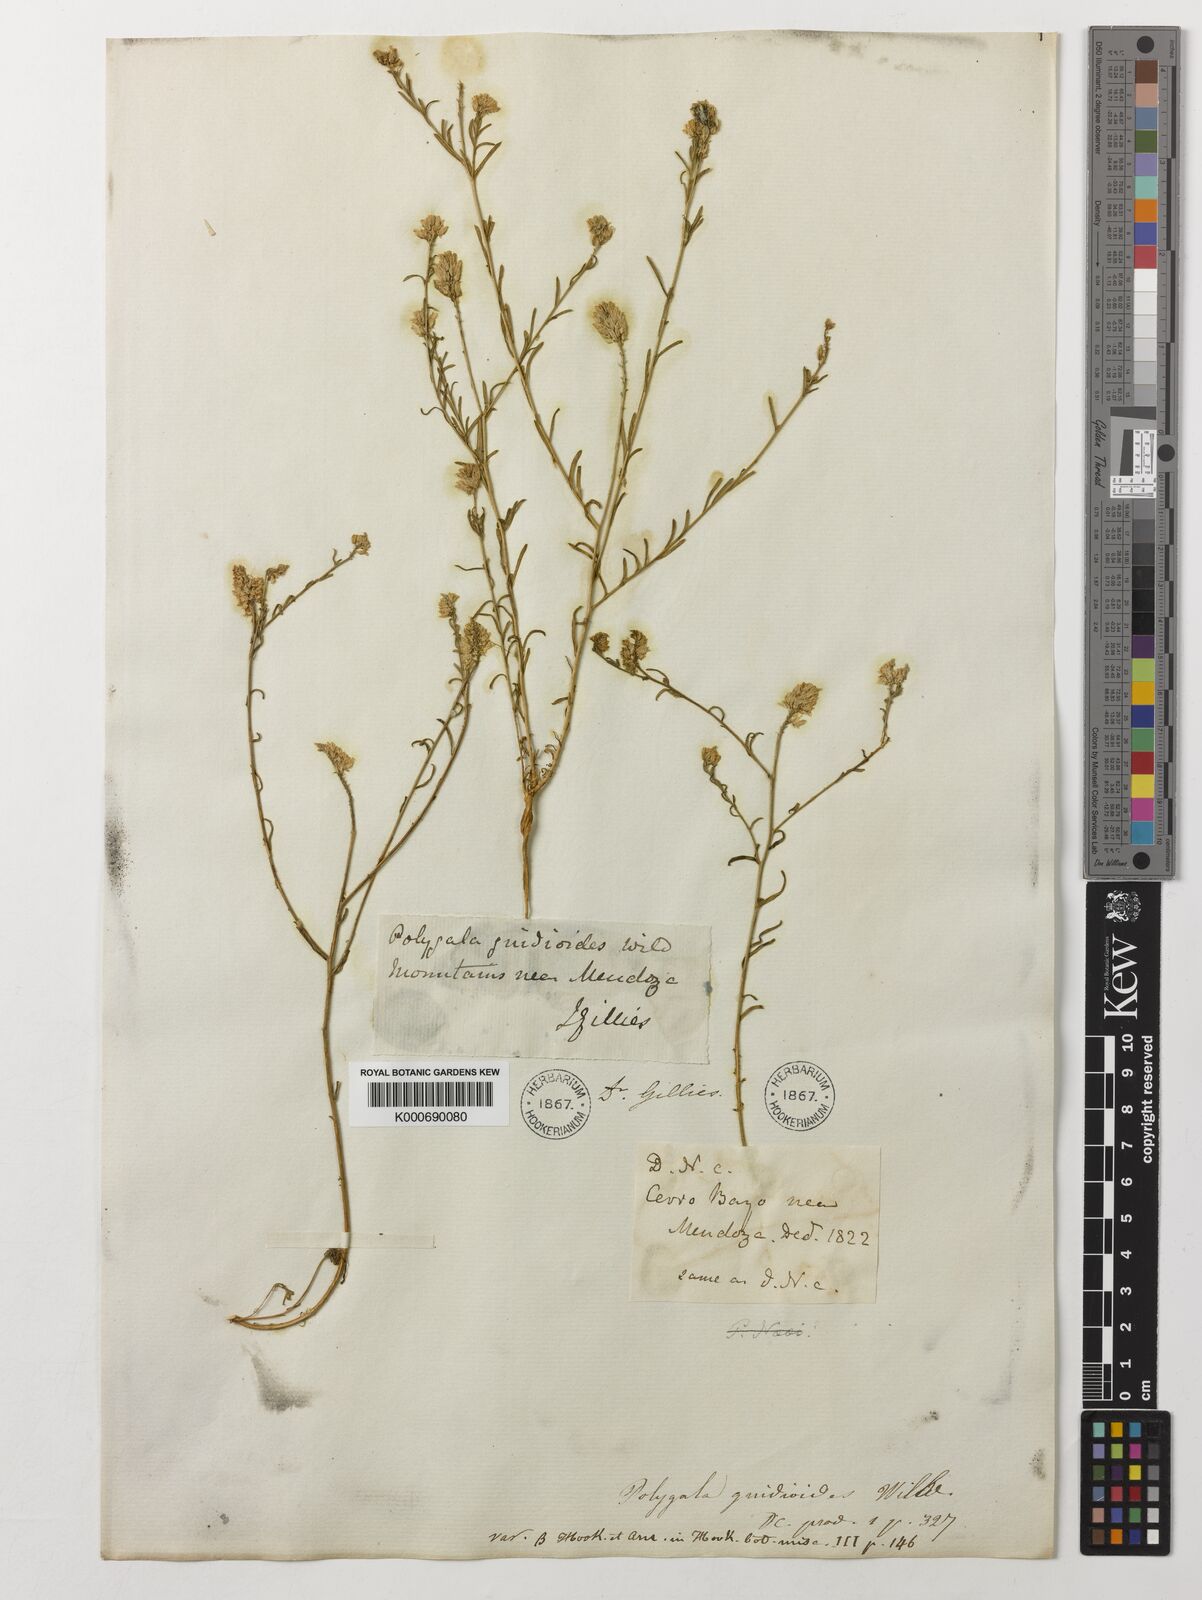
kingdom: Plantae
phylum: Tracheophyta
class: Magnoliopsida
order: Fabales
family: Polygalaceae
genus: Polygala
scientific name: Polygala gnidioides
